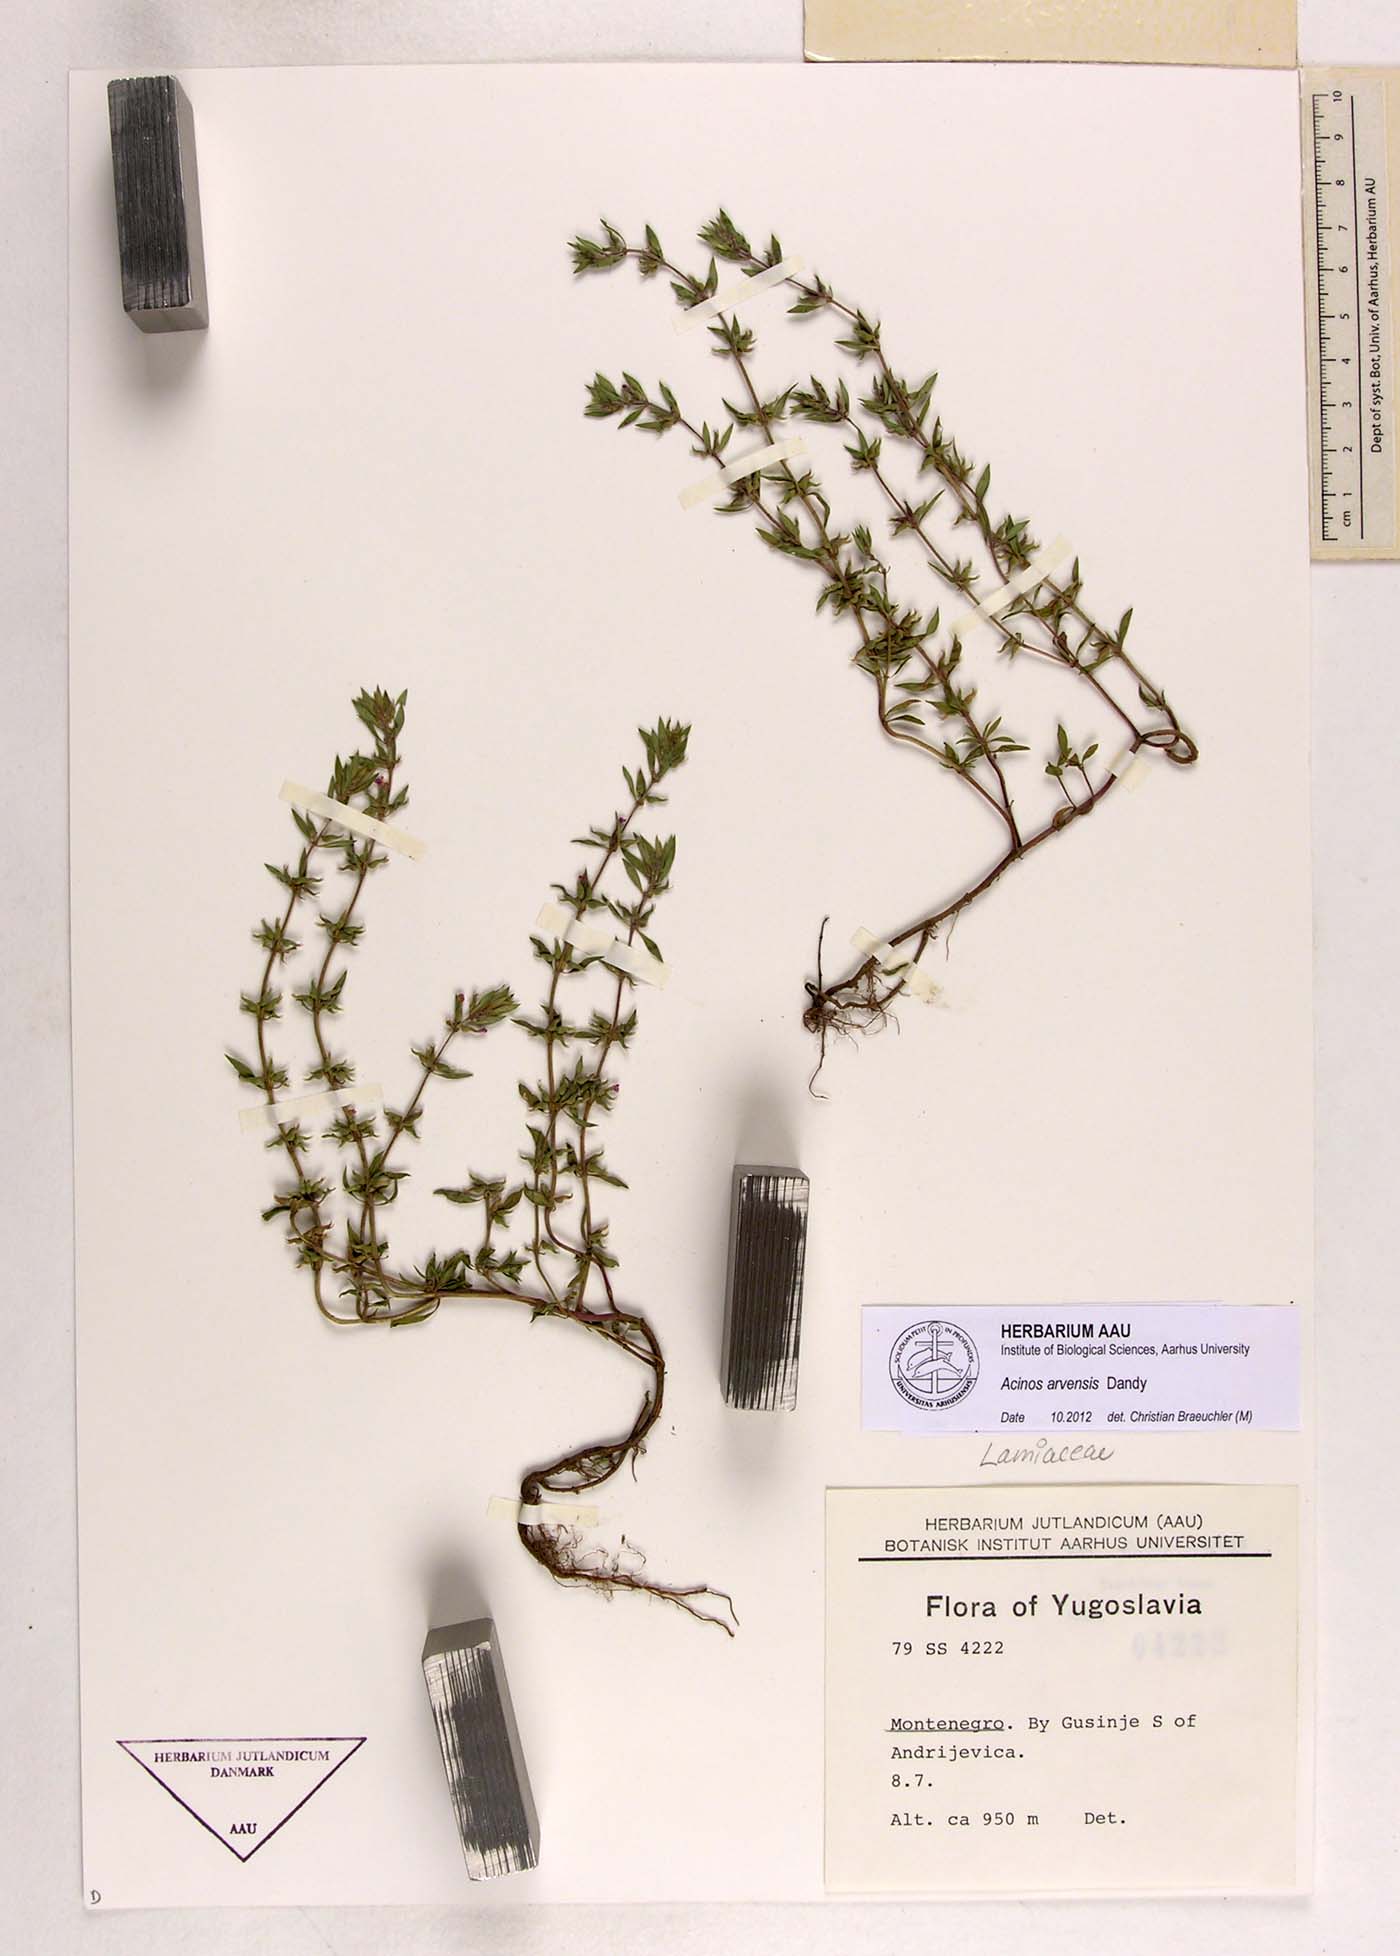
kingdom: Plantae
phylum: Tracheophyta
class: Magnoliopsida
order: Lamiales
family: Lamiaceae
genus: Clinopodium
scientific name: Clinopodium acinos
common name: Basil thyme
